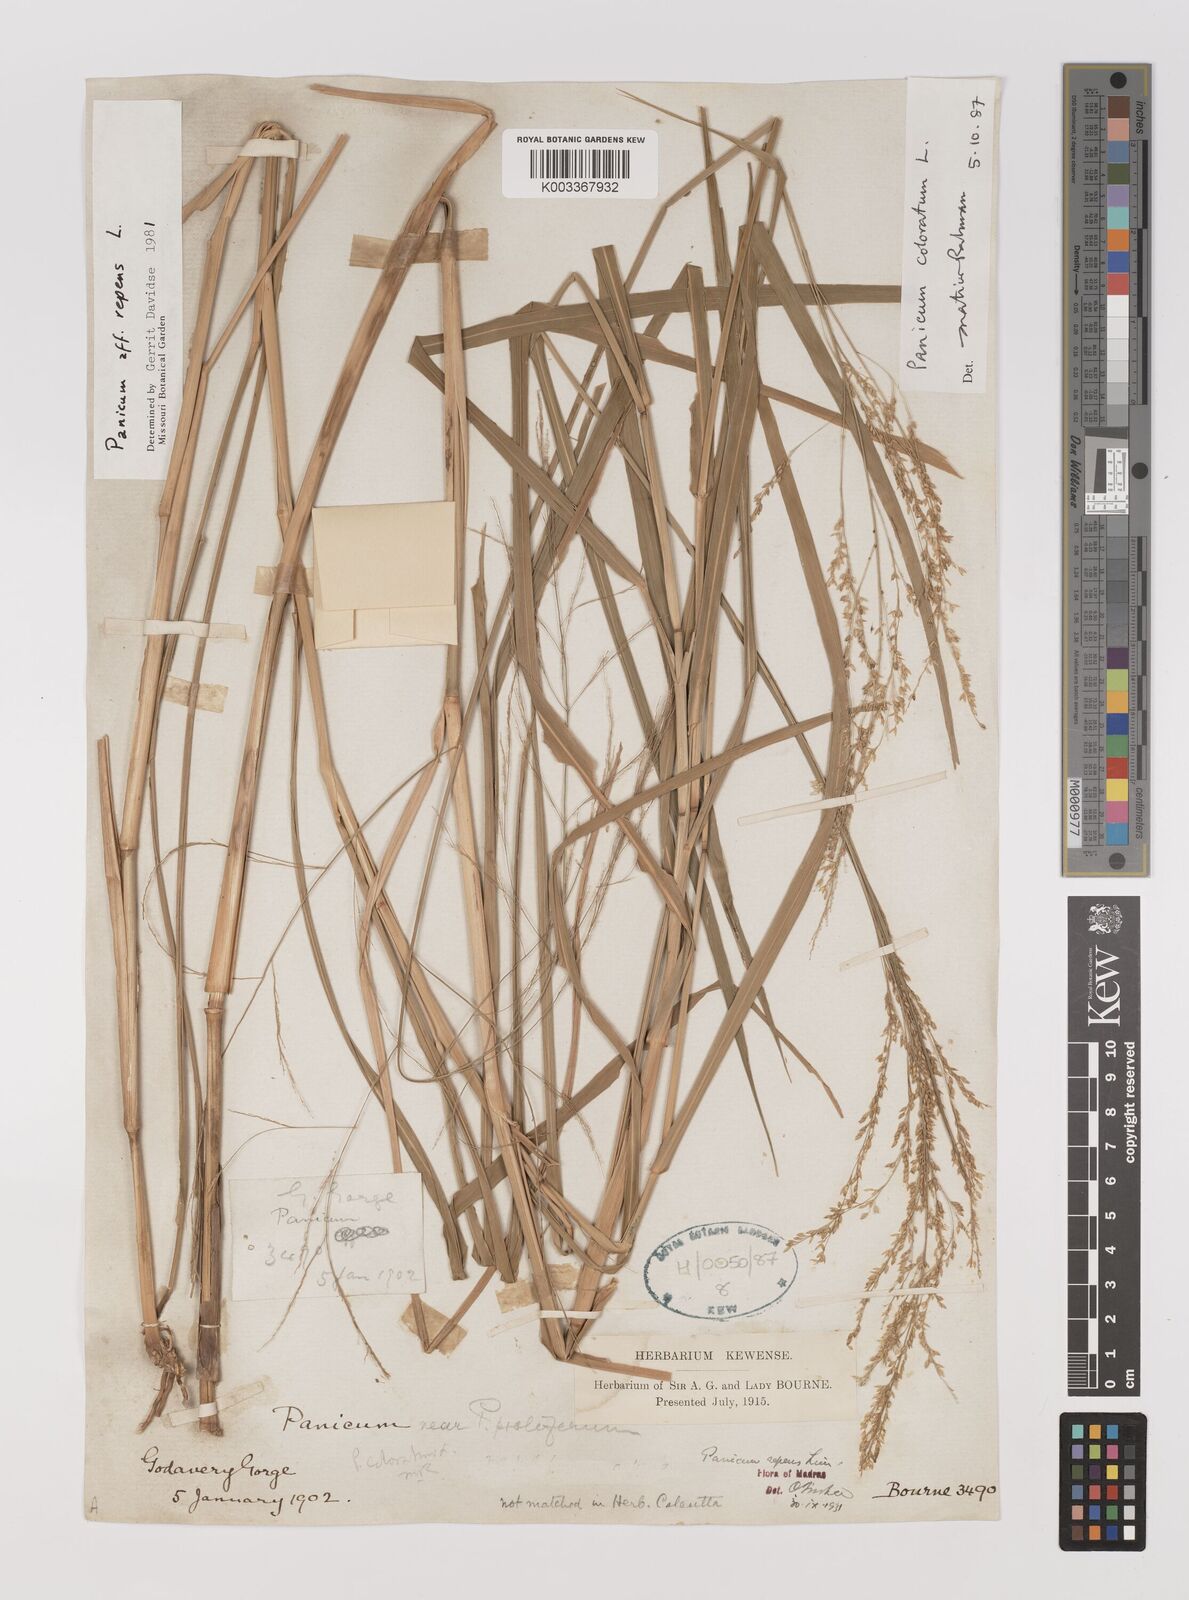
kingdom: Plantae
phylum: Tracheophyta
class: Liliopsida
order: Poales
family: Poaceae
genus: Panicum
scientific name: Panicum coloratum
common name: Kleingrass
